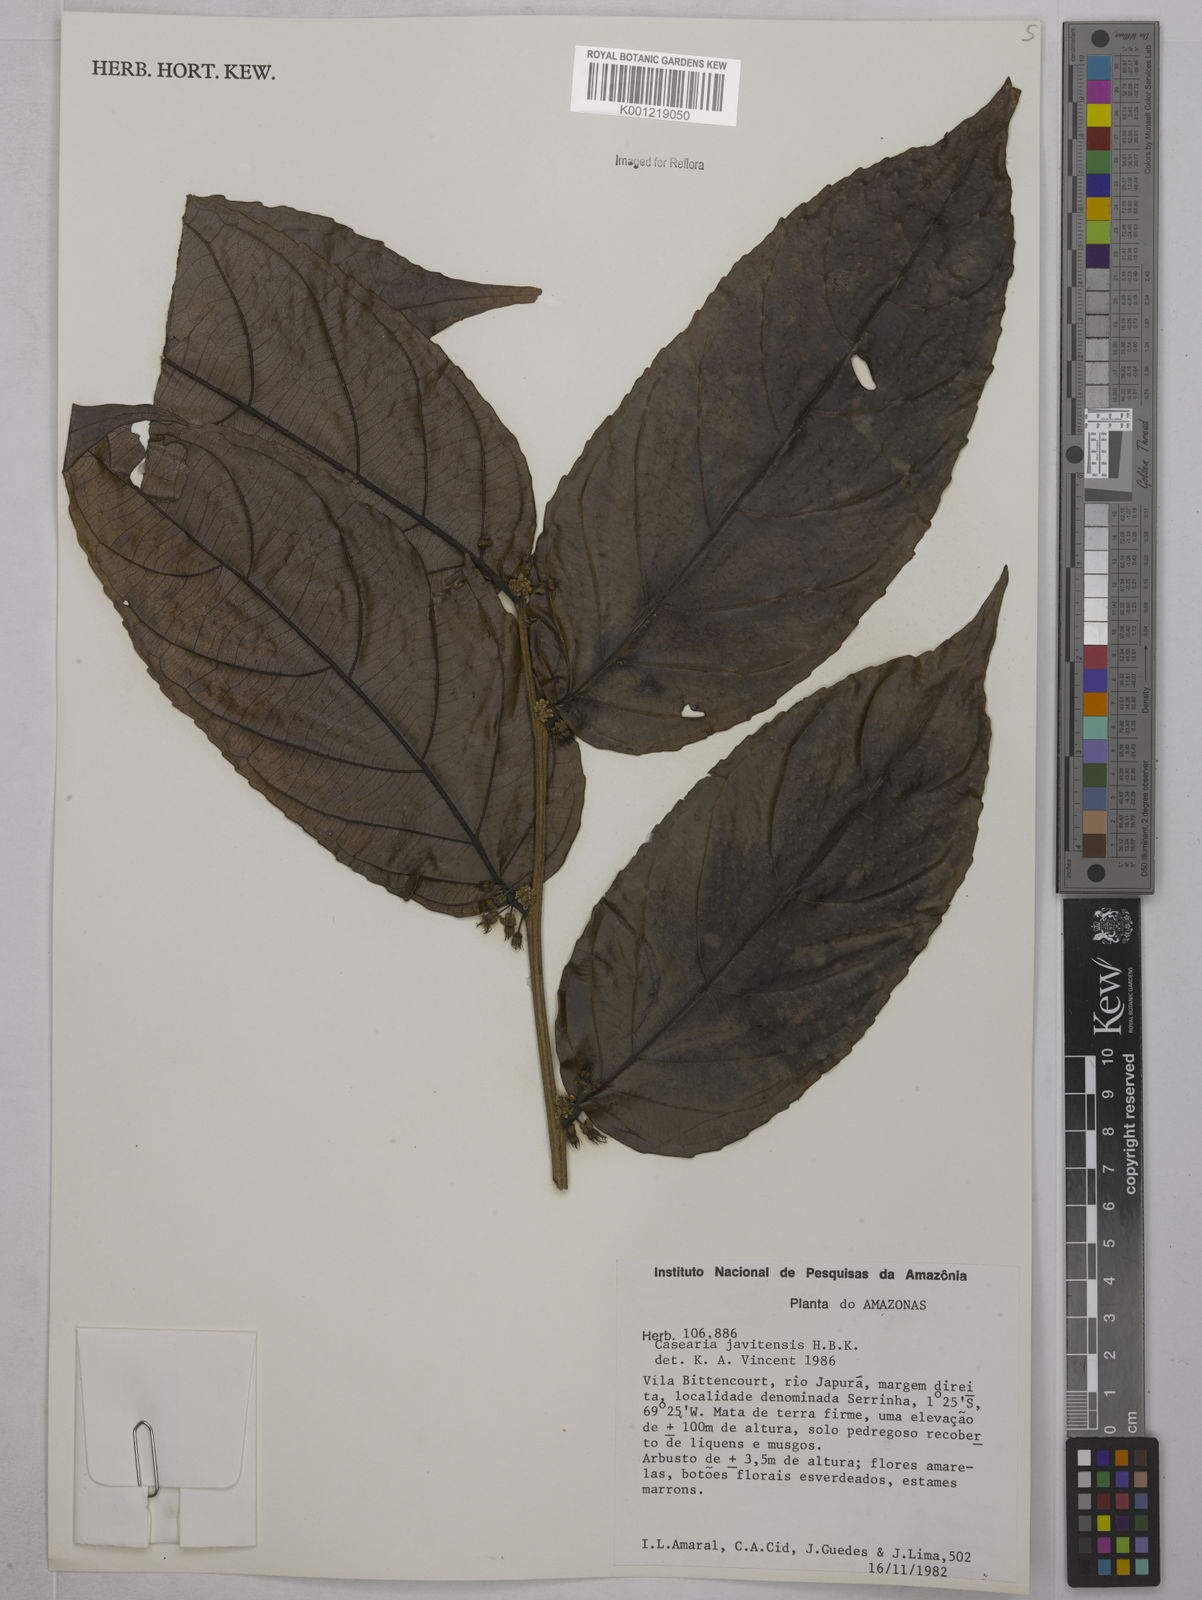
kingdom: Plantae
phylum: Tracheophyta
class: Magnoliopsida
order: Malpighiales
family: Salicaceae
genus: Piparea
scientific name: Piparea multiflora
